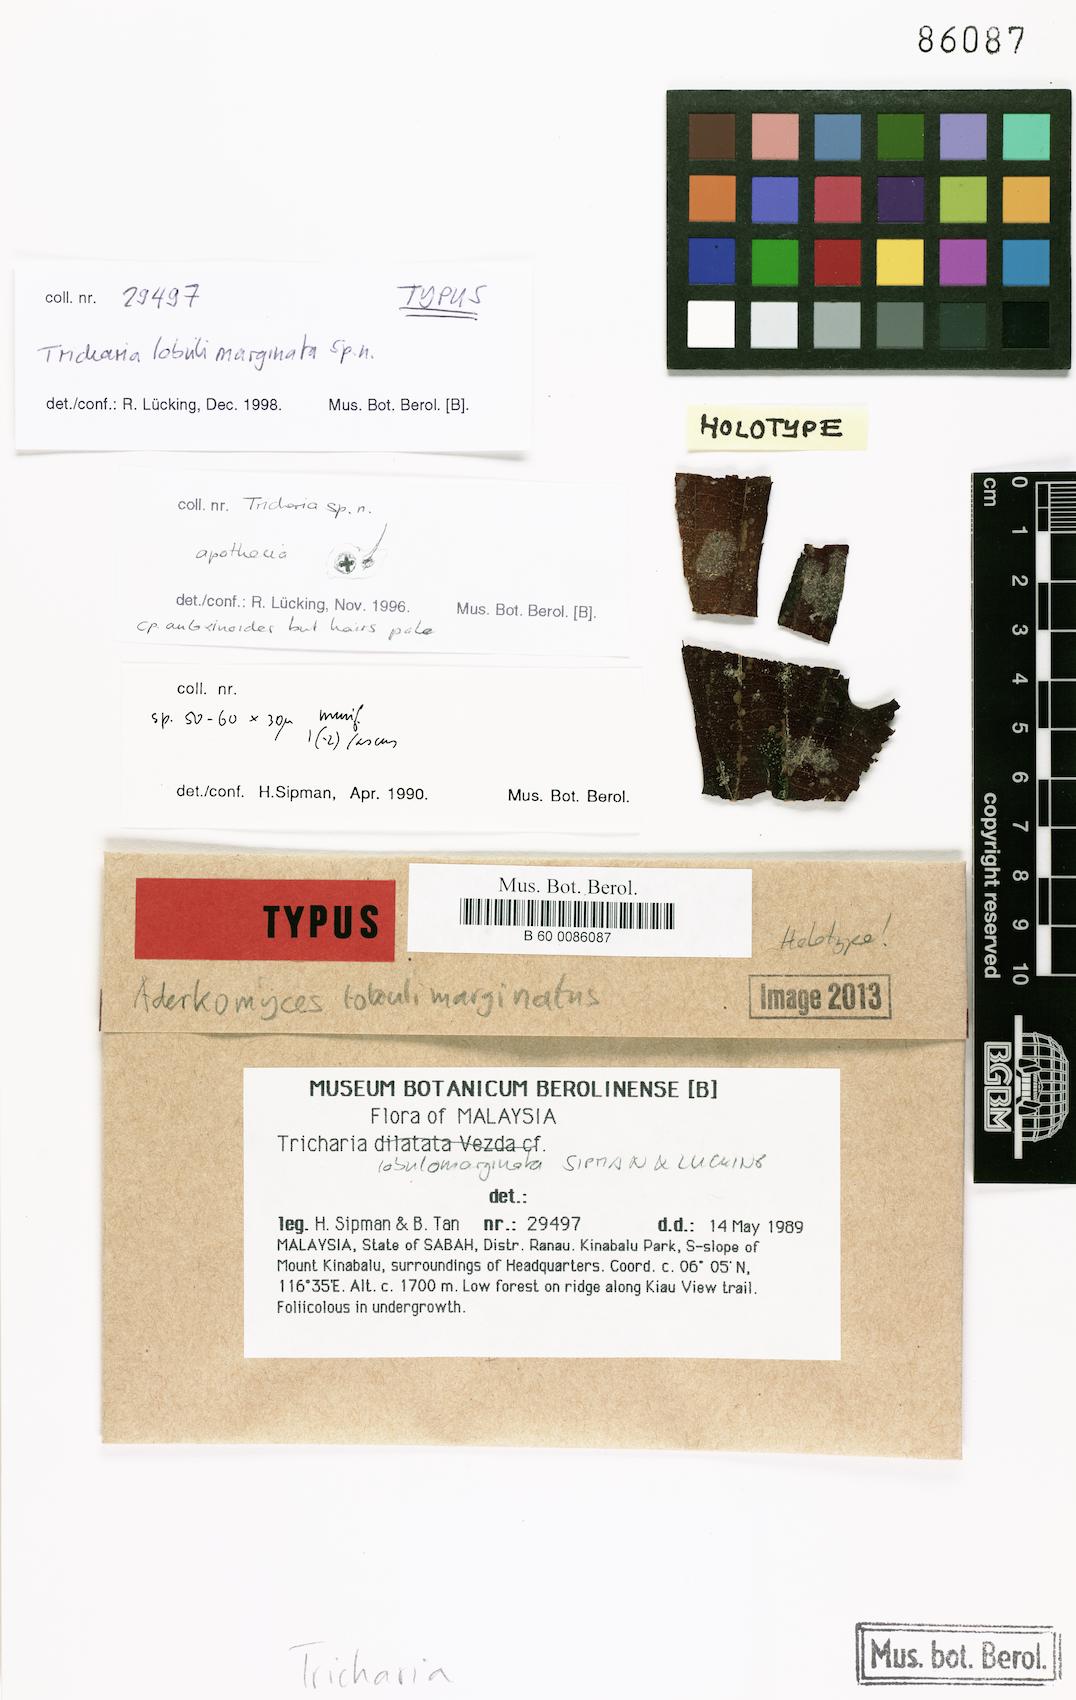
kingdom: Fungi
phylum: Ascomycota
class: Lecanoromycetes
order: Ostropales
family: Gomphillaceae
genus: Aderkomyces
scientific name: Aderkomyces lobulimarginatus
